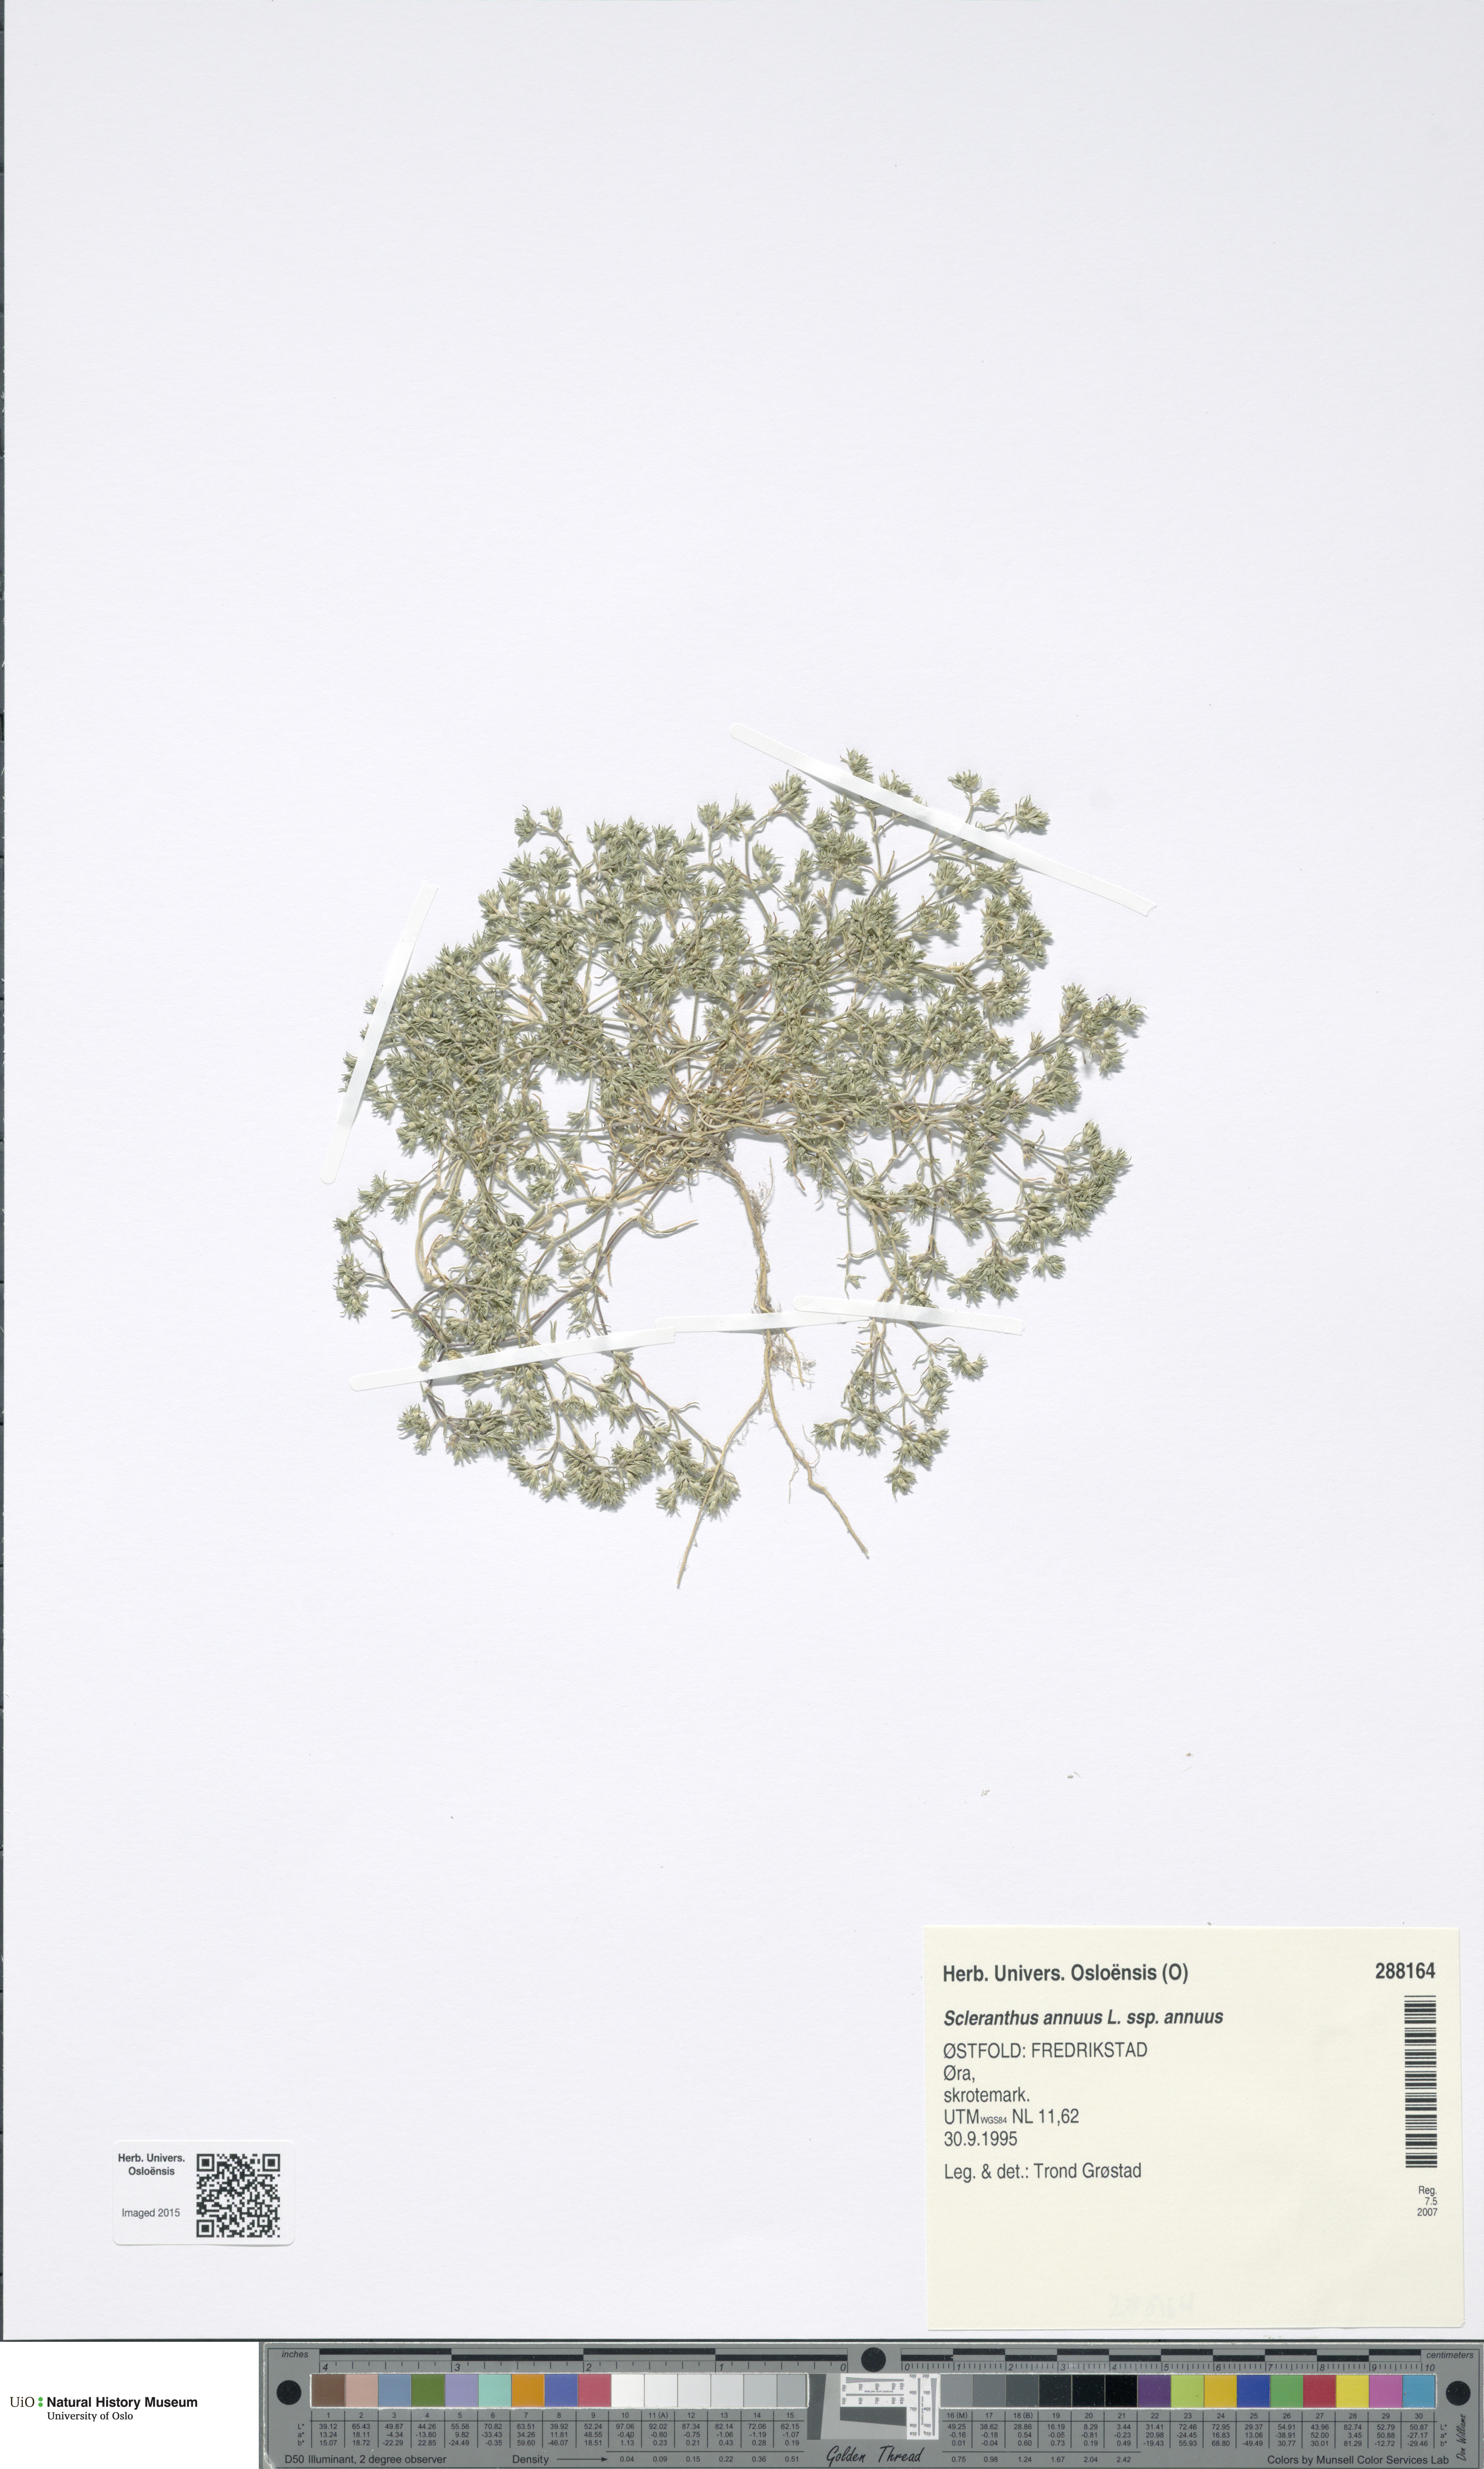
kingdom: Plantae
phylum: Tracheophyta
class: Magnoliopsida
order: Caryophyllales
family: Caryophyllaceae
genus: Scleranthus
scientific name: Scleranthus annuus
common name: Annual knawel
